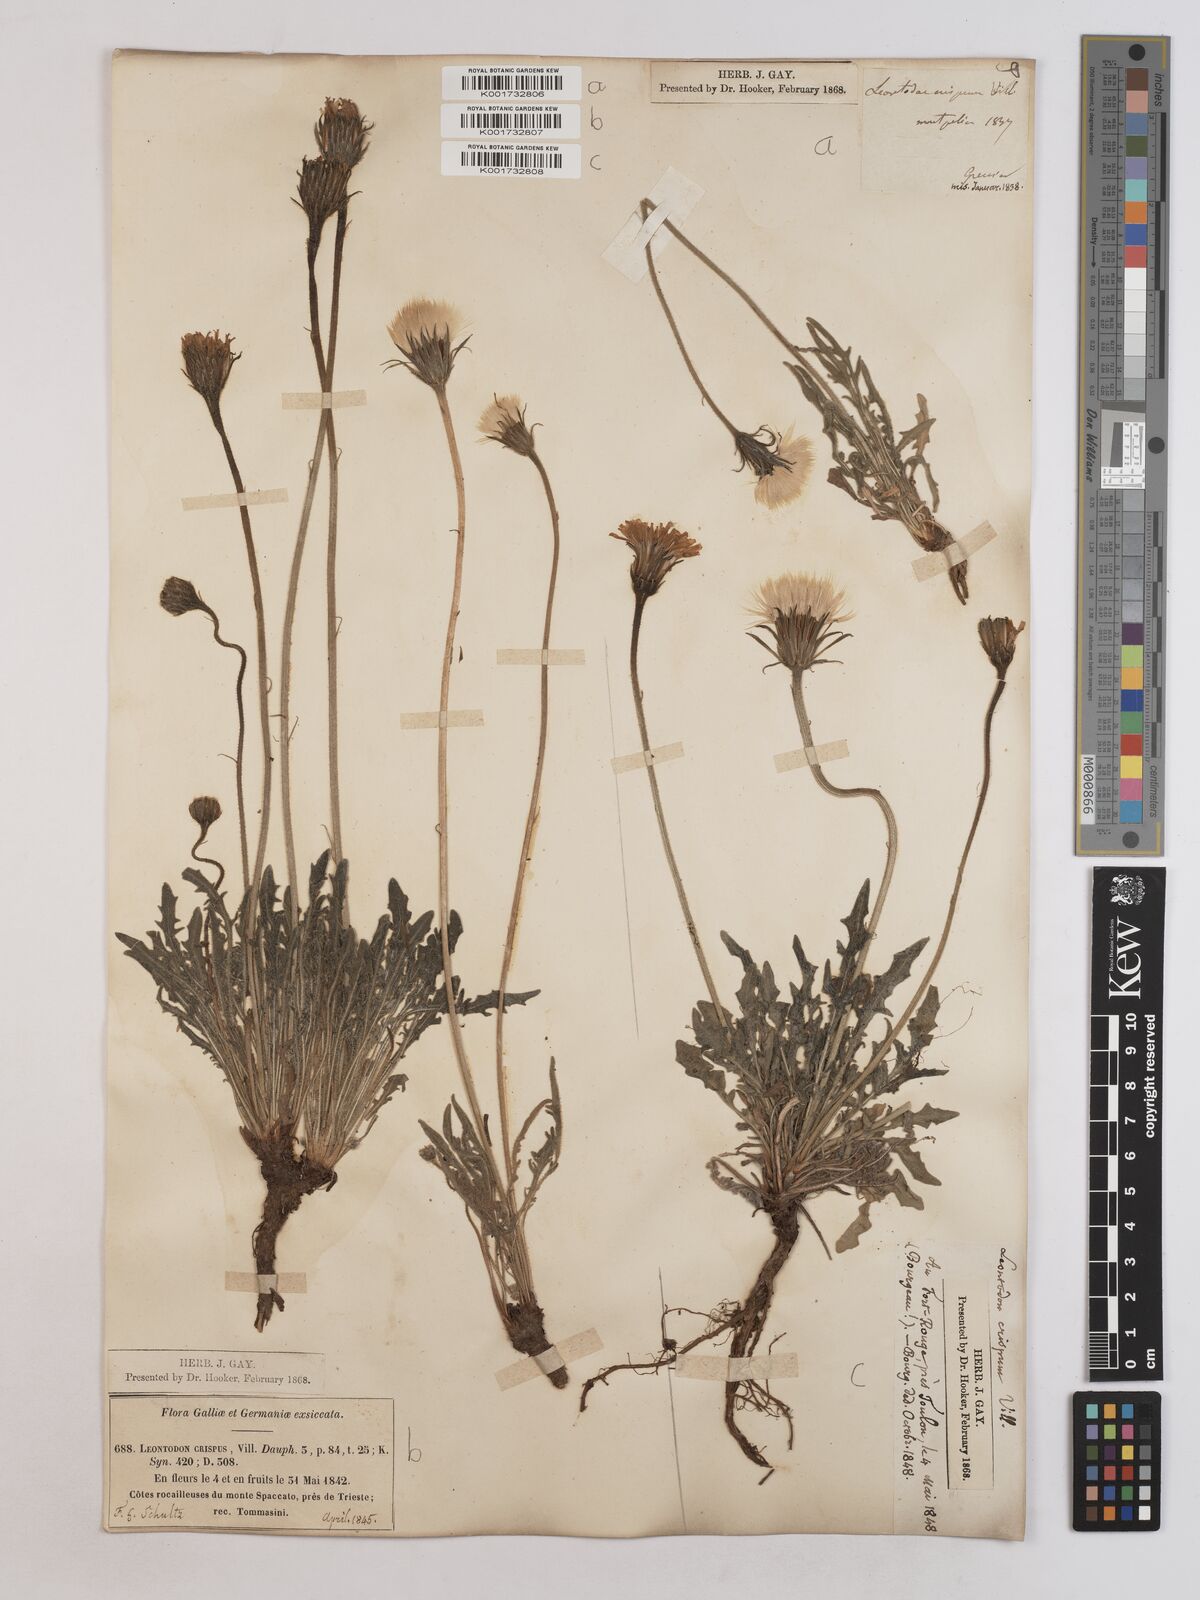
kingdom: Plantae
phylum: Tracheophyta
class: Magnoliopsida
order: Asterales
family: Asteraceae
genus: Leontodon
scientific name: Leontodon crispus
